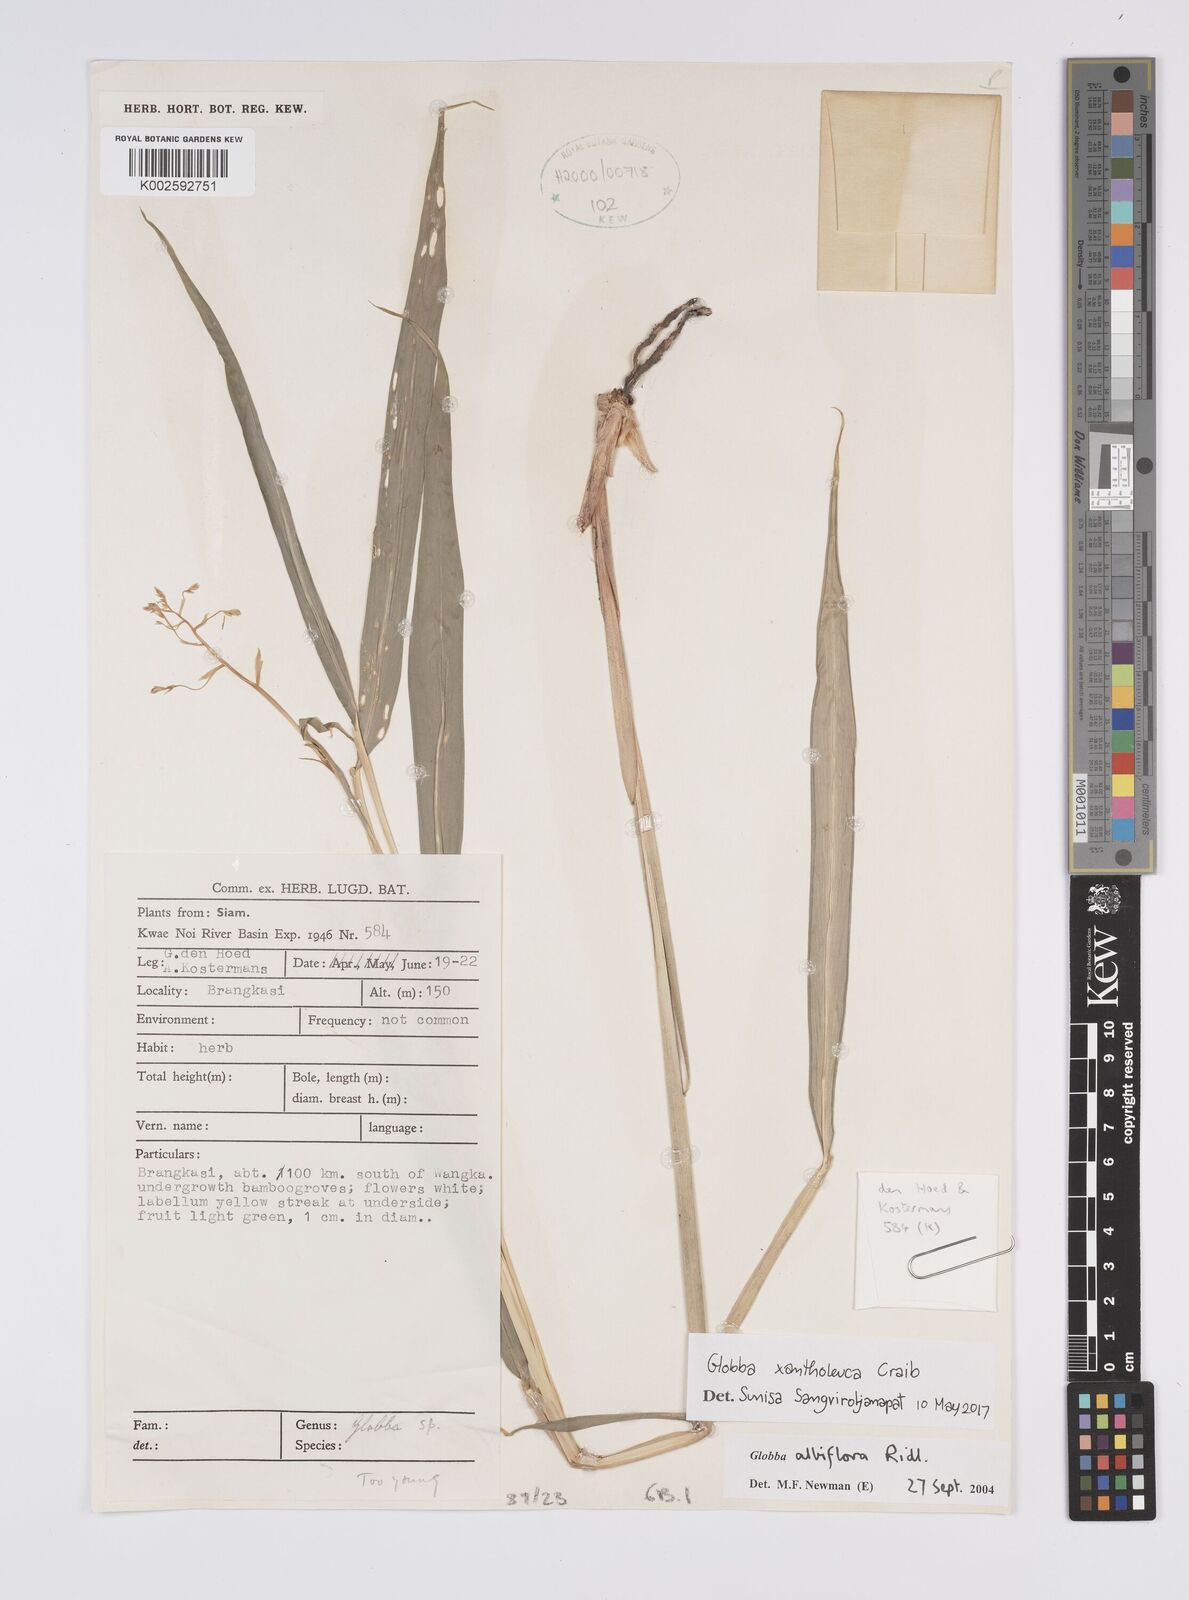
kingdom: Plantae
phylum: Tracheophyta
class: Liliopsida
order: Zingiberales
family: Zingiberaceae
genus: Globba
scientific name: Globba xantholeuca
